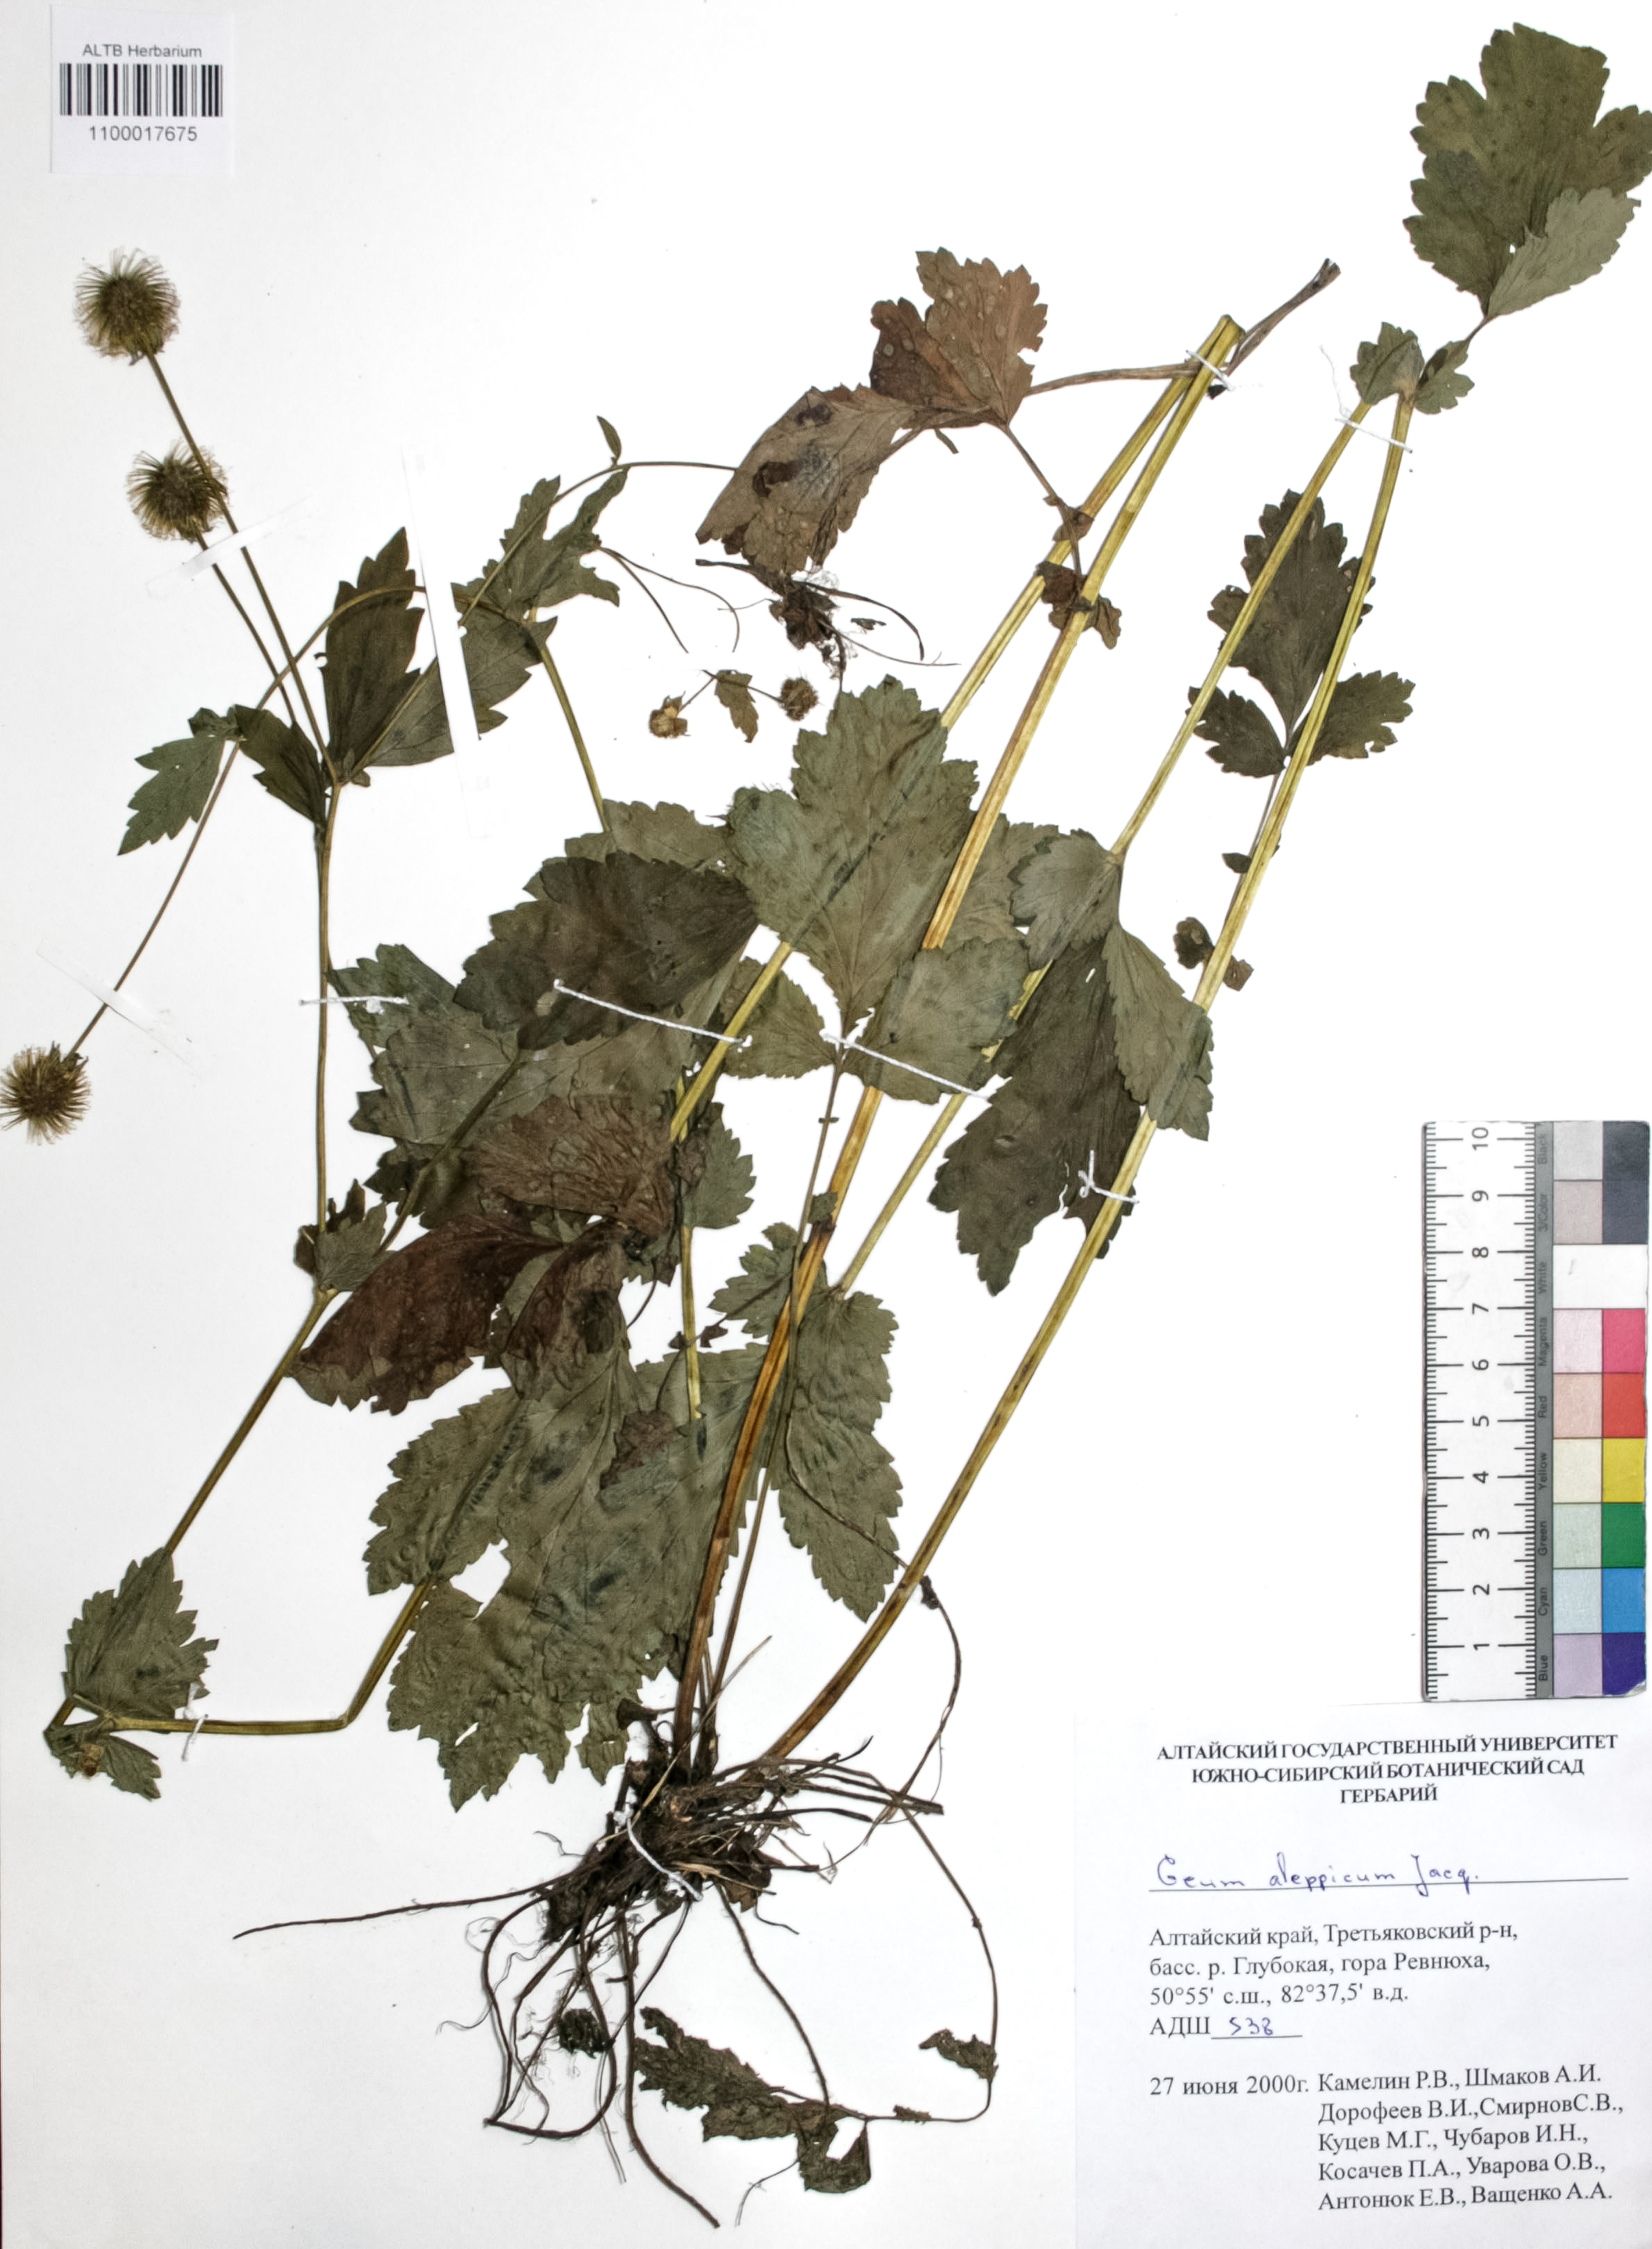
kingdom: Plantae
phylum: Tracheophyta
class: Magnoliopsida
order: Rosales
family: Rosaceae
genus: Geum
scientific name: Geum aleppicum
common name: Yellow avens
